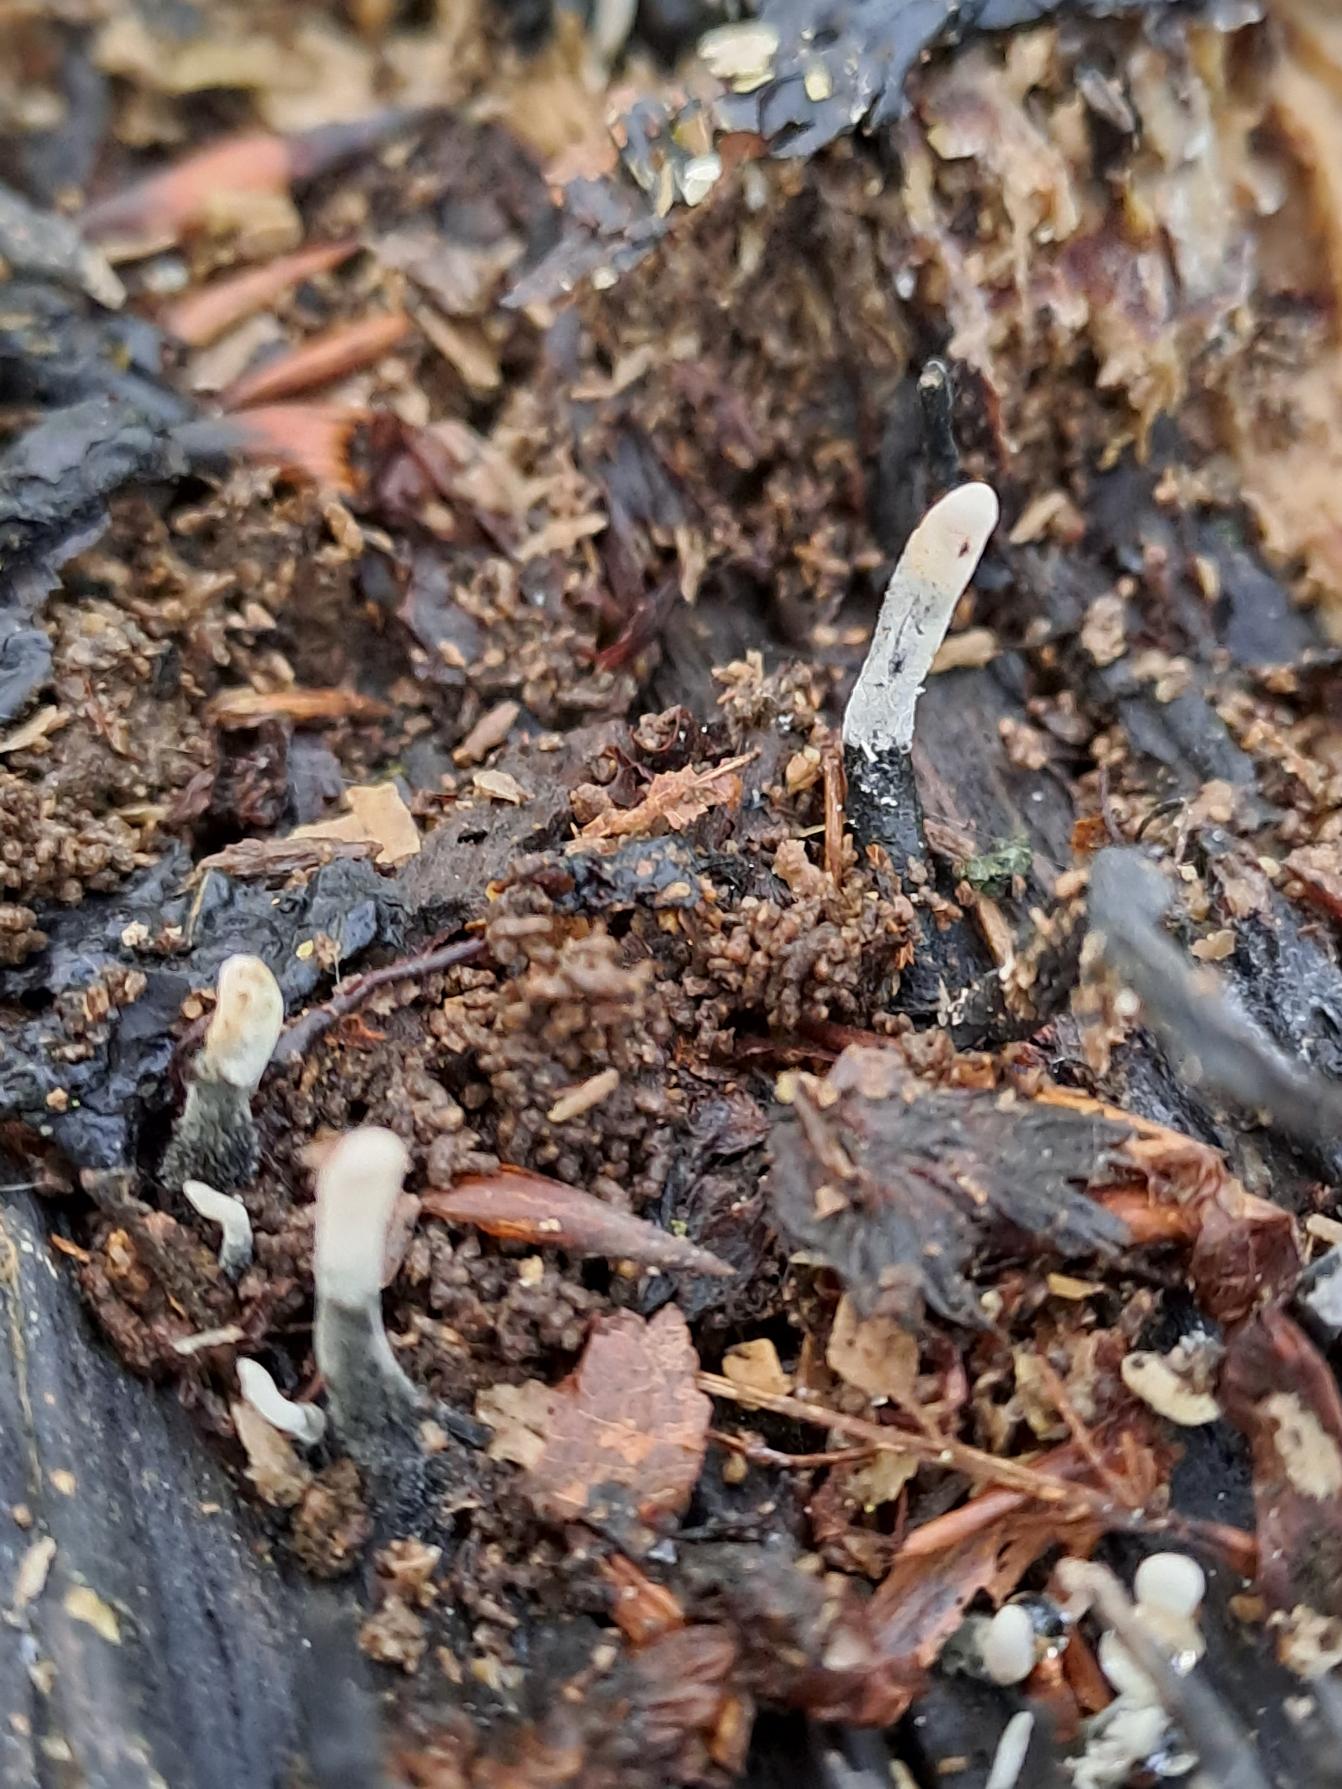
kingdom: Fungi
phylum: Ascomycota
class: Sordariomycetes
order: Xylariales
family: Xylariaceae
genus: Xylaria
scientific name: Xylaria hypoxylon
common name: Grenet stødsvamp
